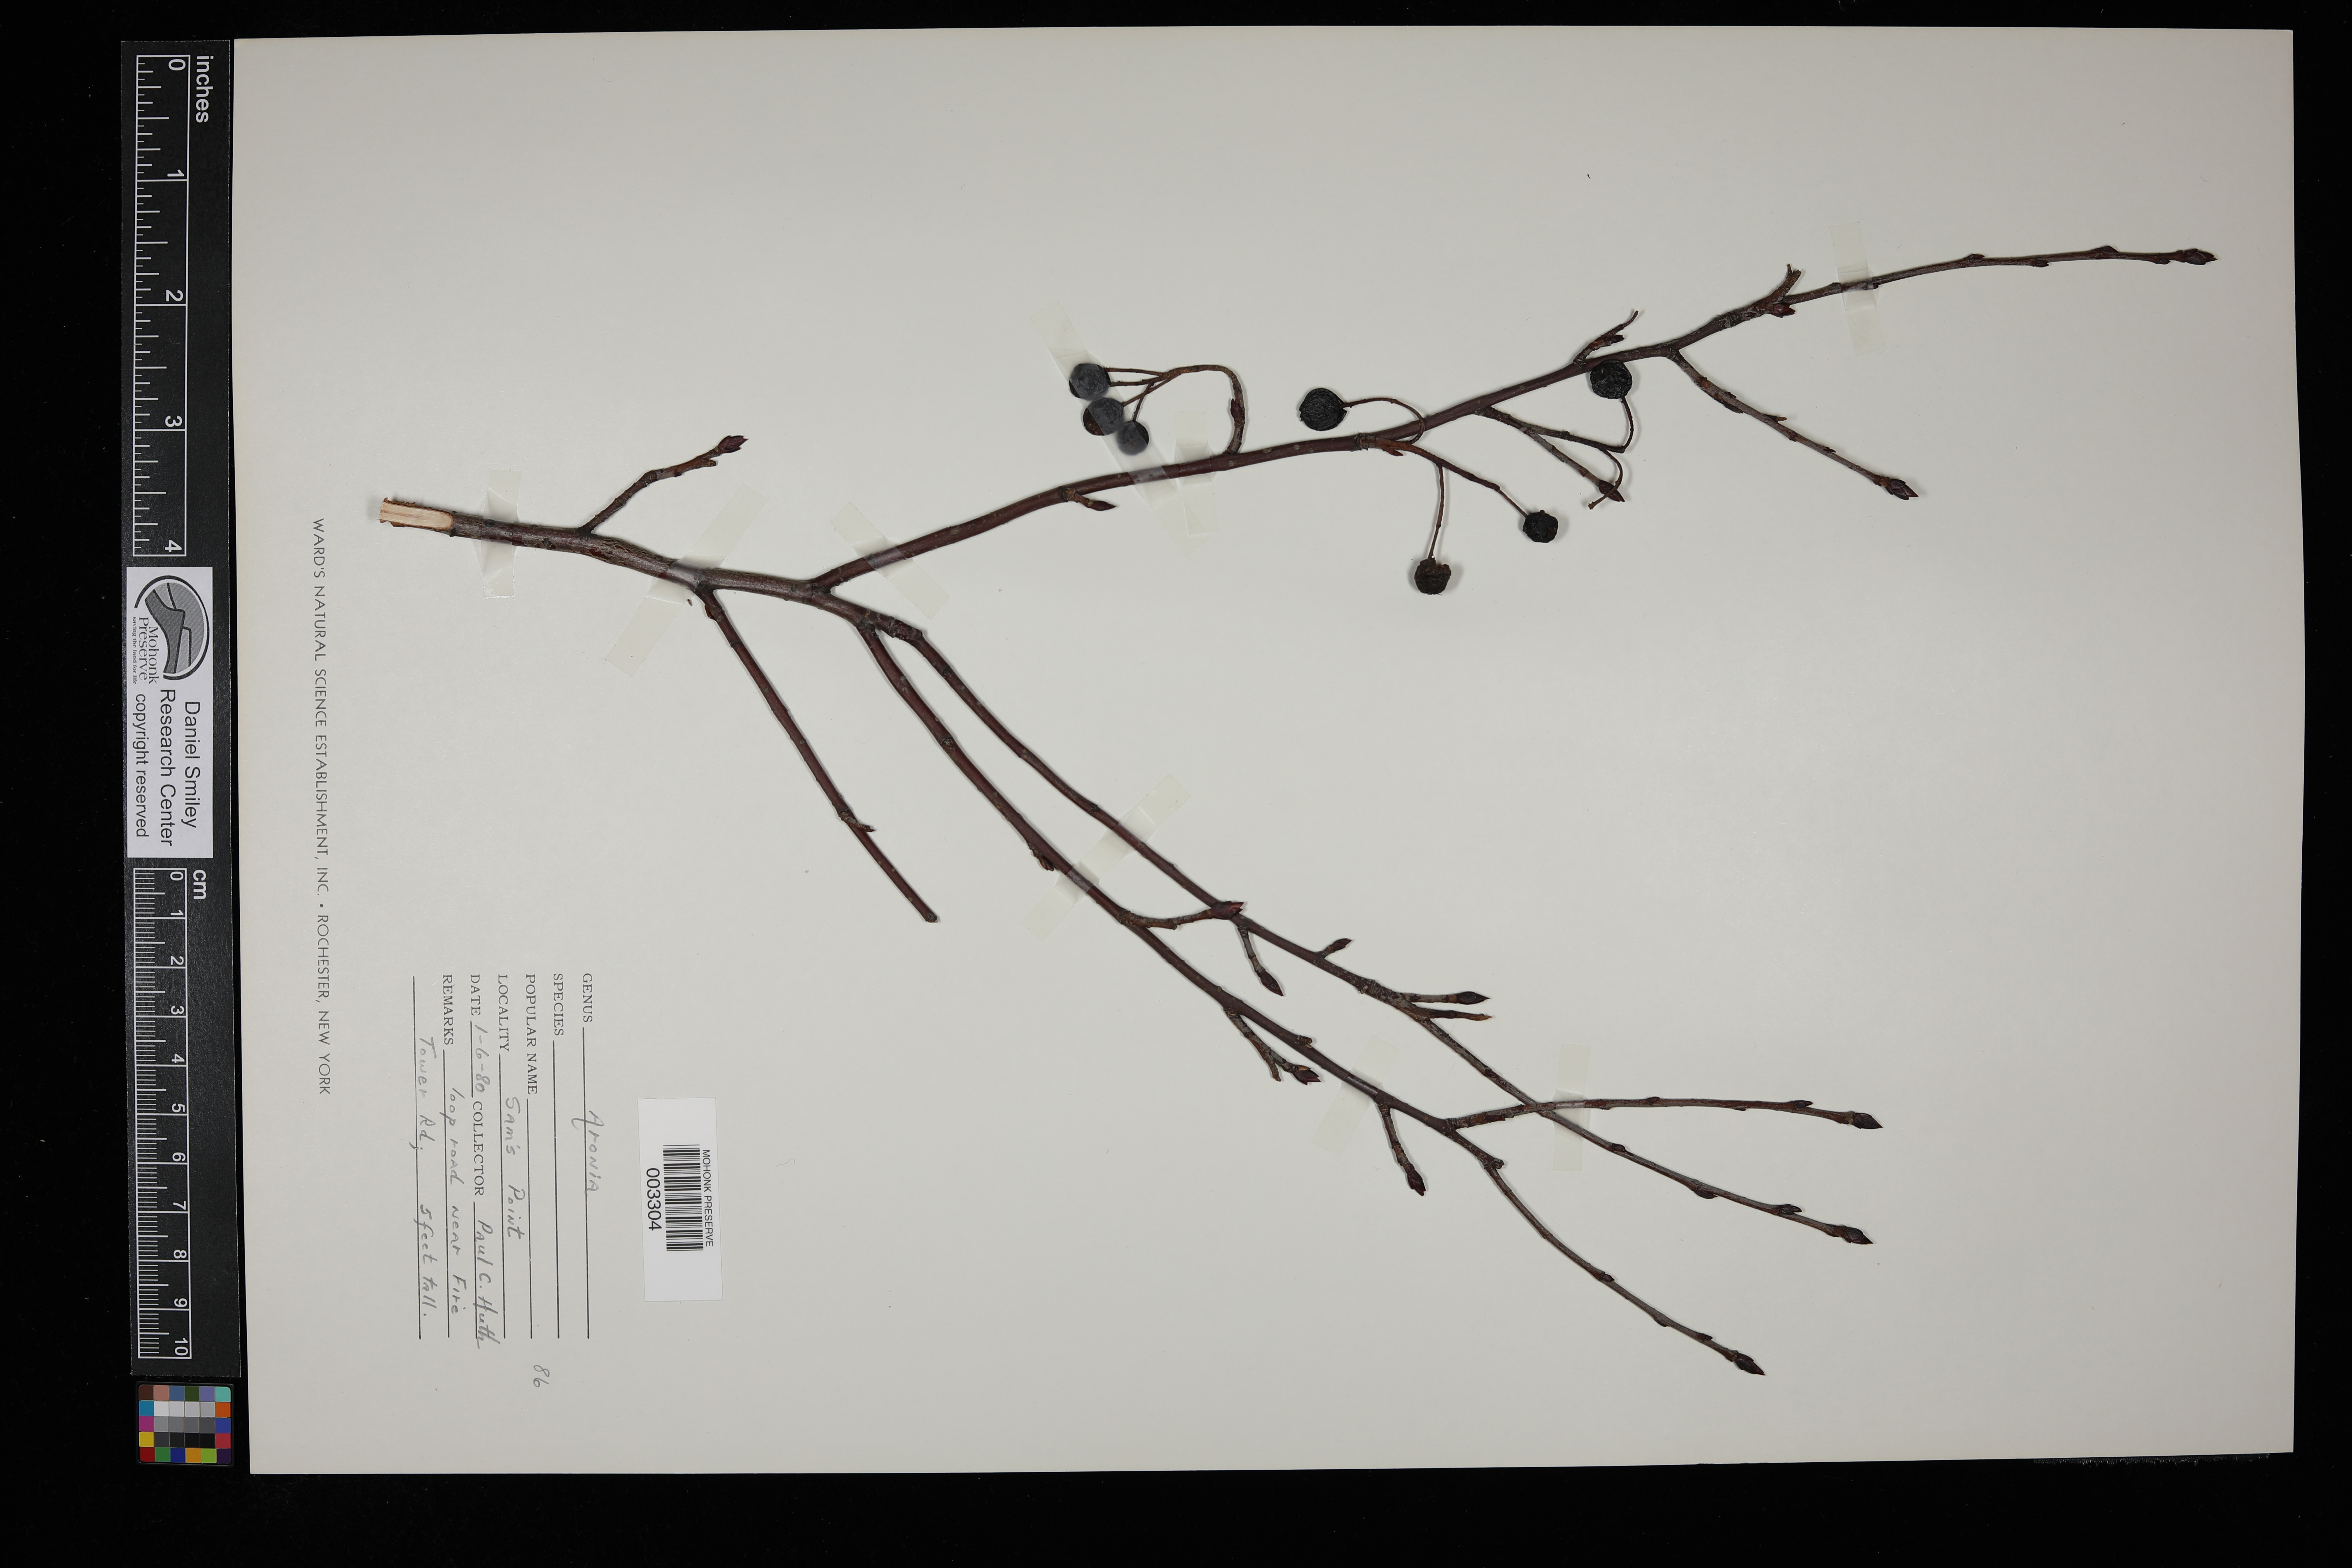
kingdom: Plantae
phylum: Tracheophyta
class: Magnoliopsida
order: Rosales
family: Rosaceae
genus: Aronia
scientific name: Aronia
